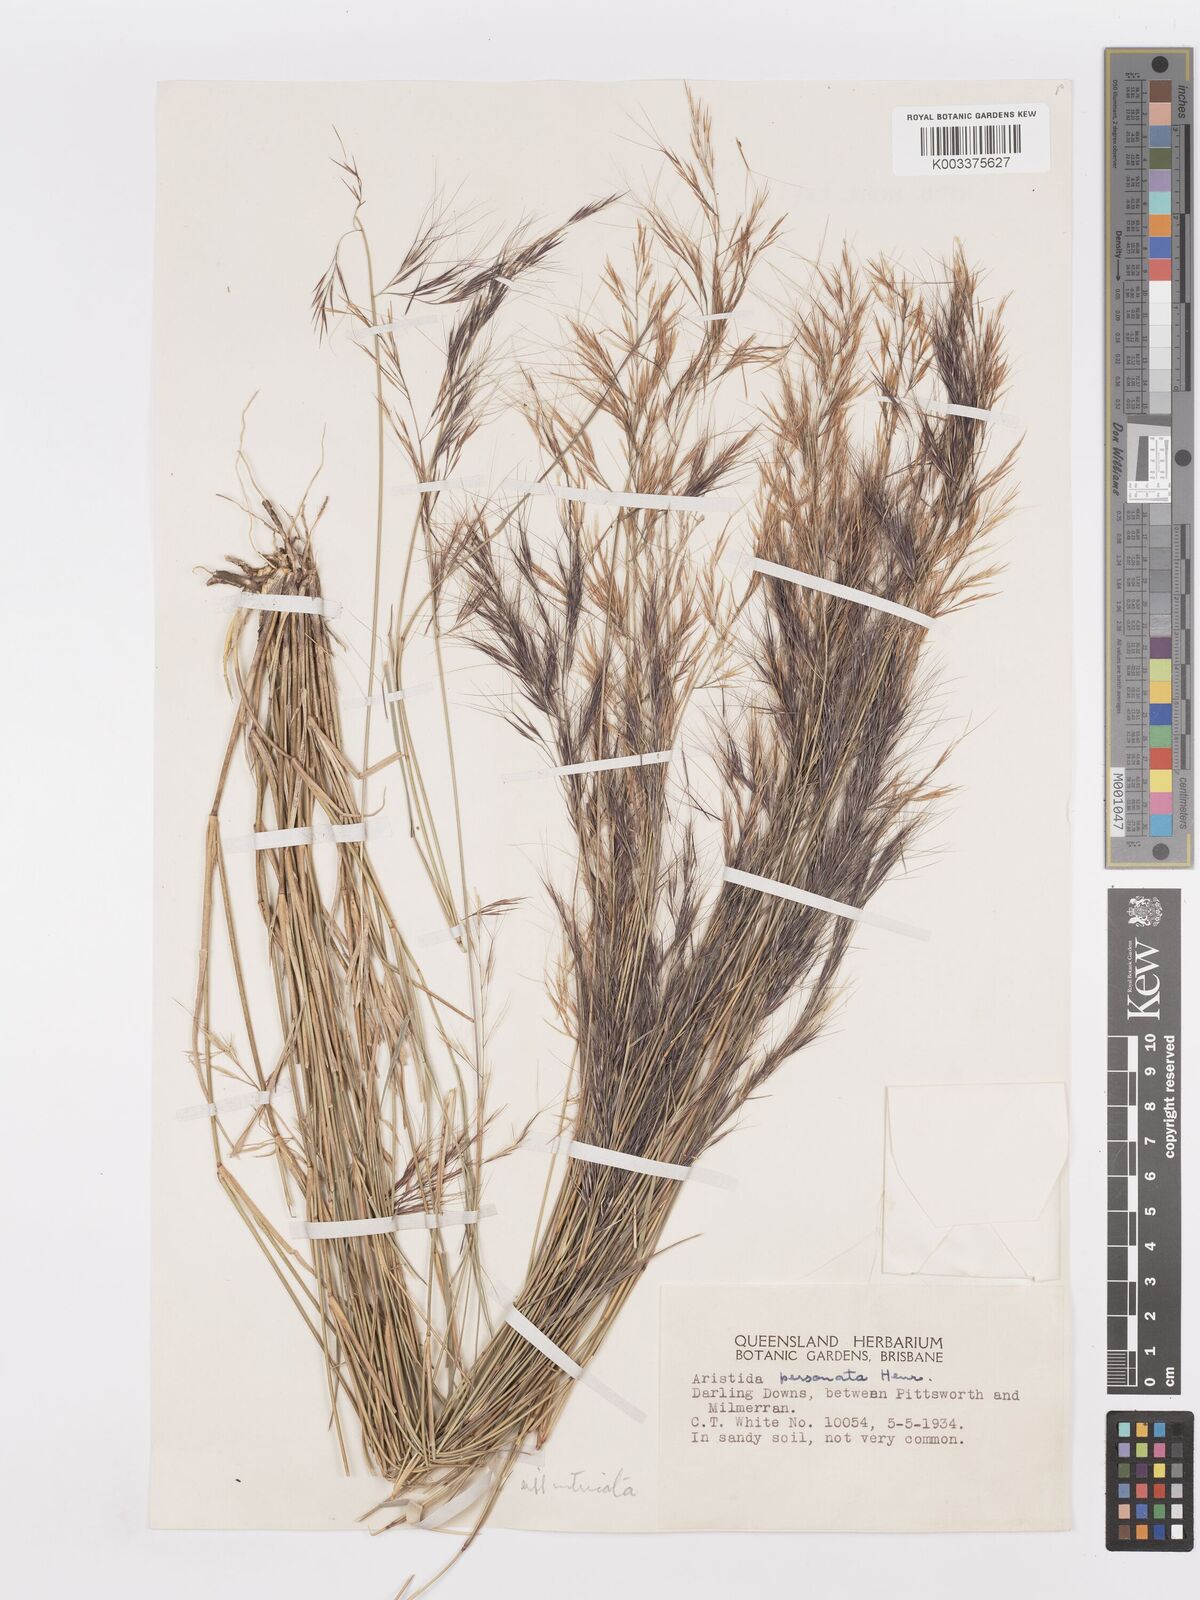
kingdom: Plantae
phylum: Tracheophyta
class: Liliopsida
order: Poales
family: Poaceae
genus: Aristida
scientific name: Aristida personata
